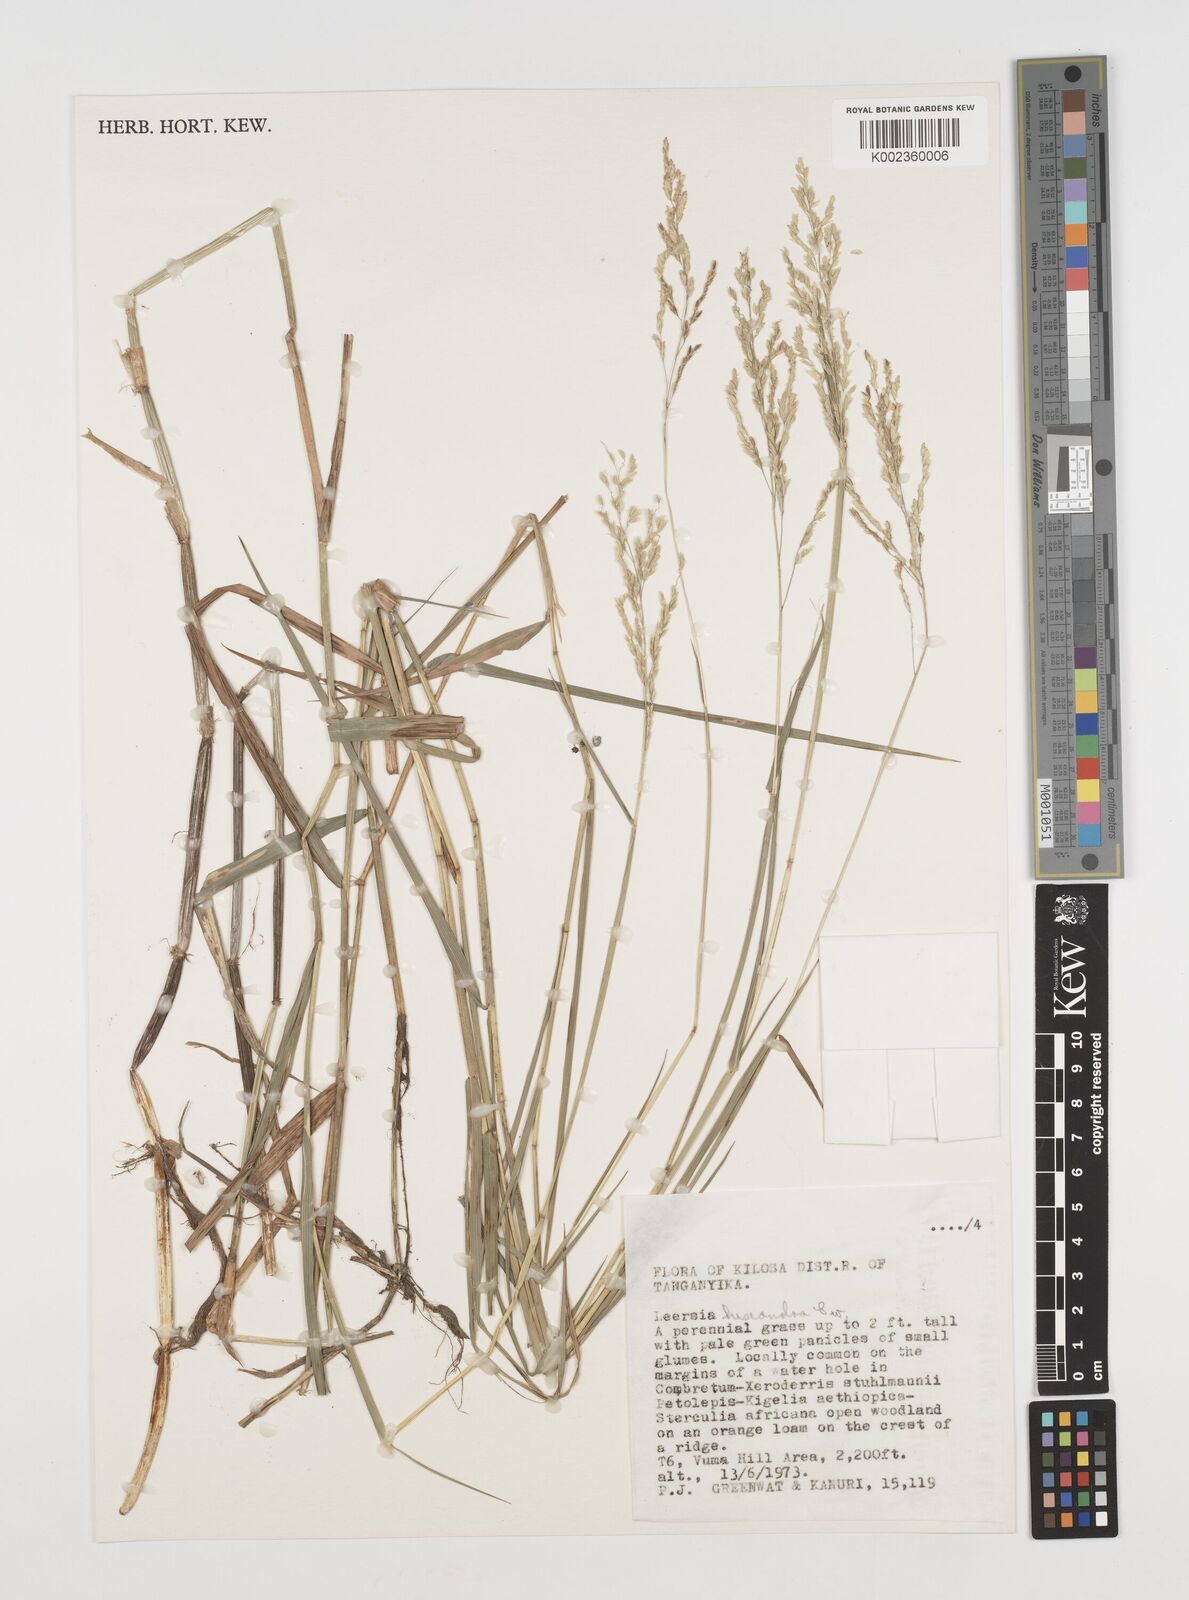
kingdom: Plantae
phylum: Tracheophyta
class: Liliopsida
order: Poales
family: Poaceae
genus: Leersia
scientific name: Leersia hexandra
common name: Southern cut grass
